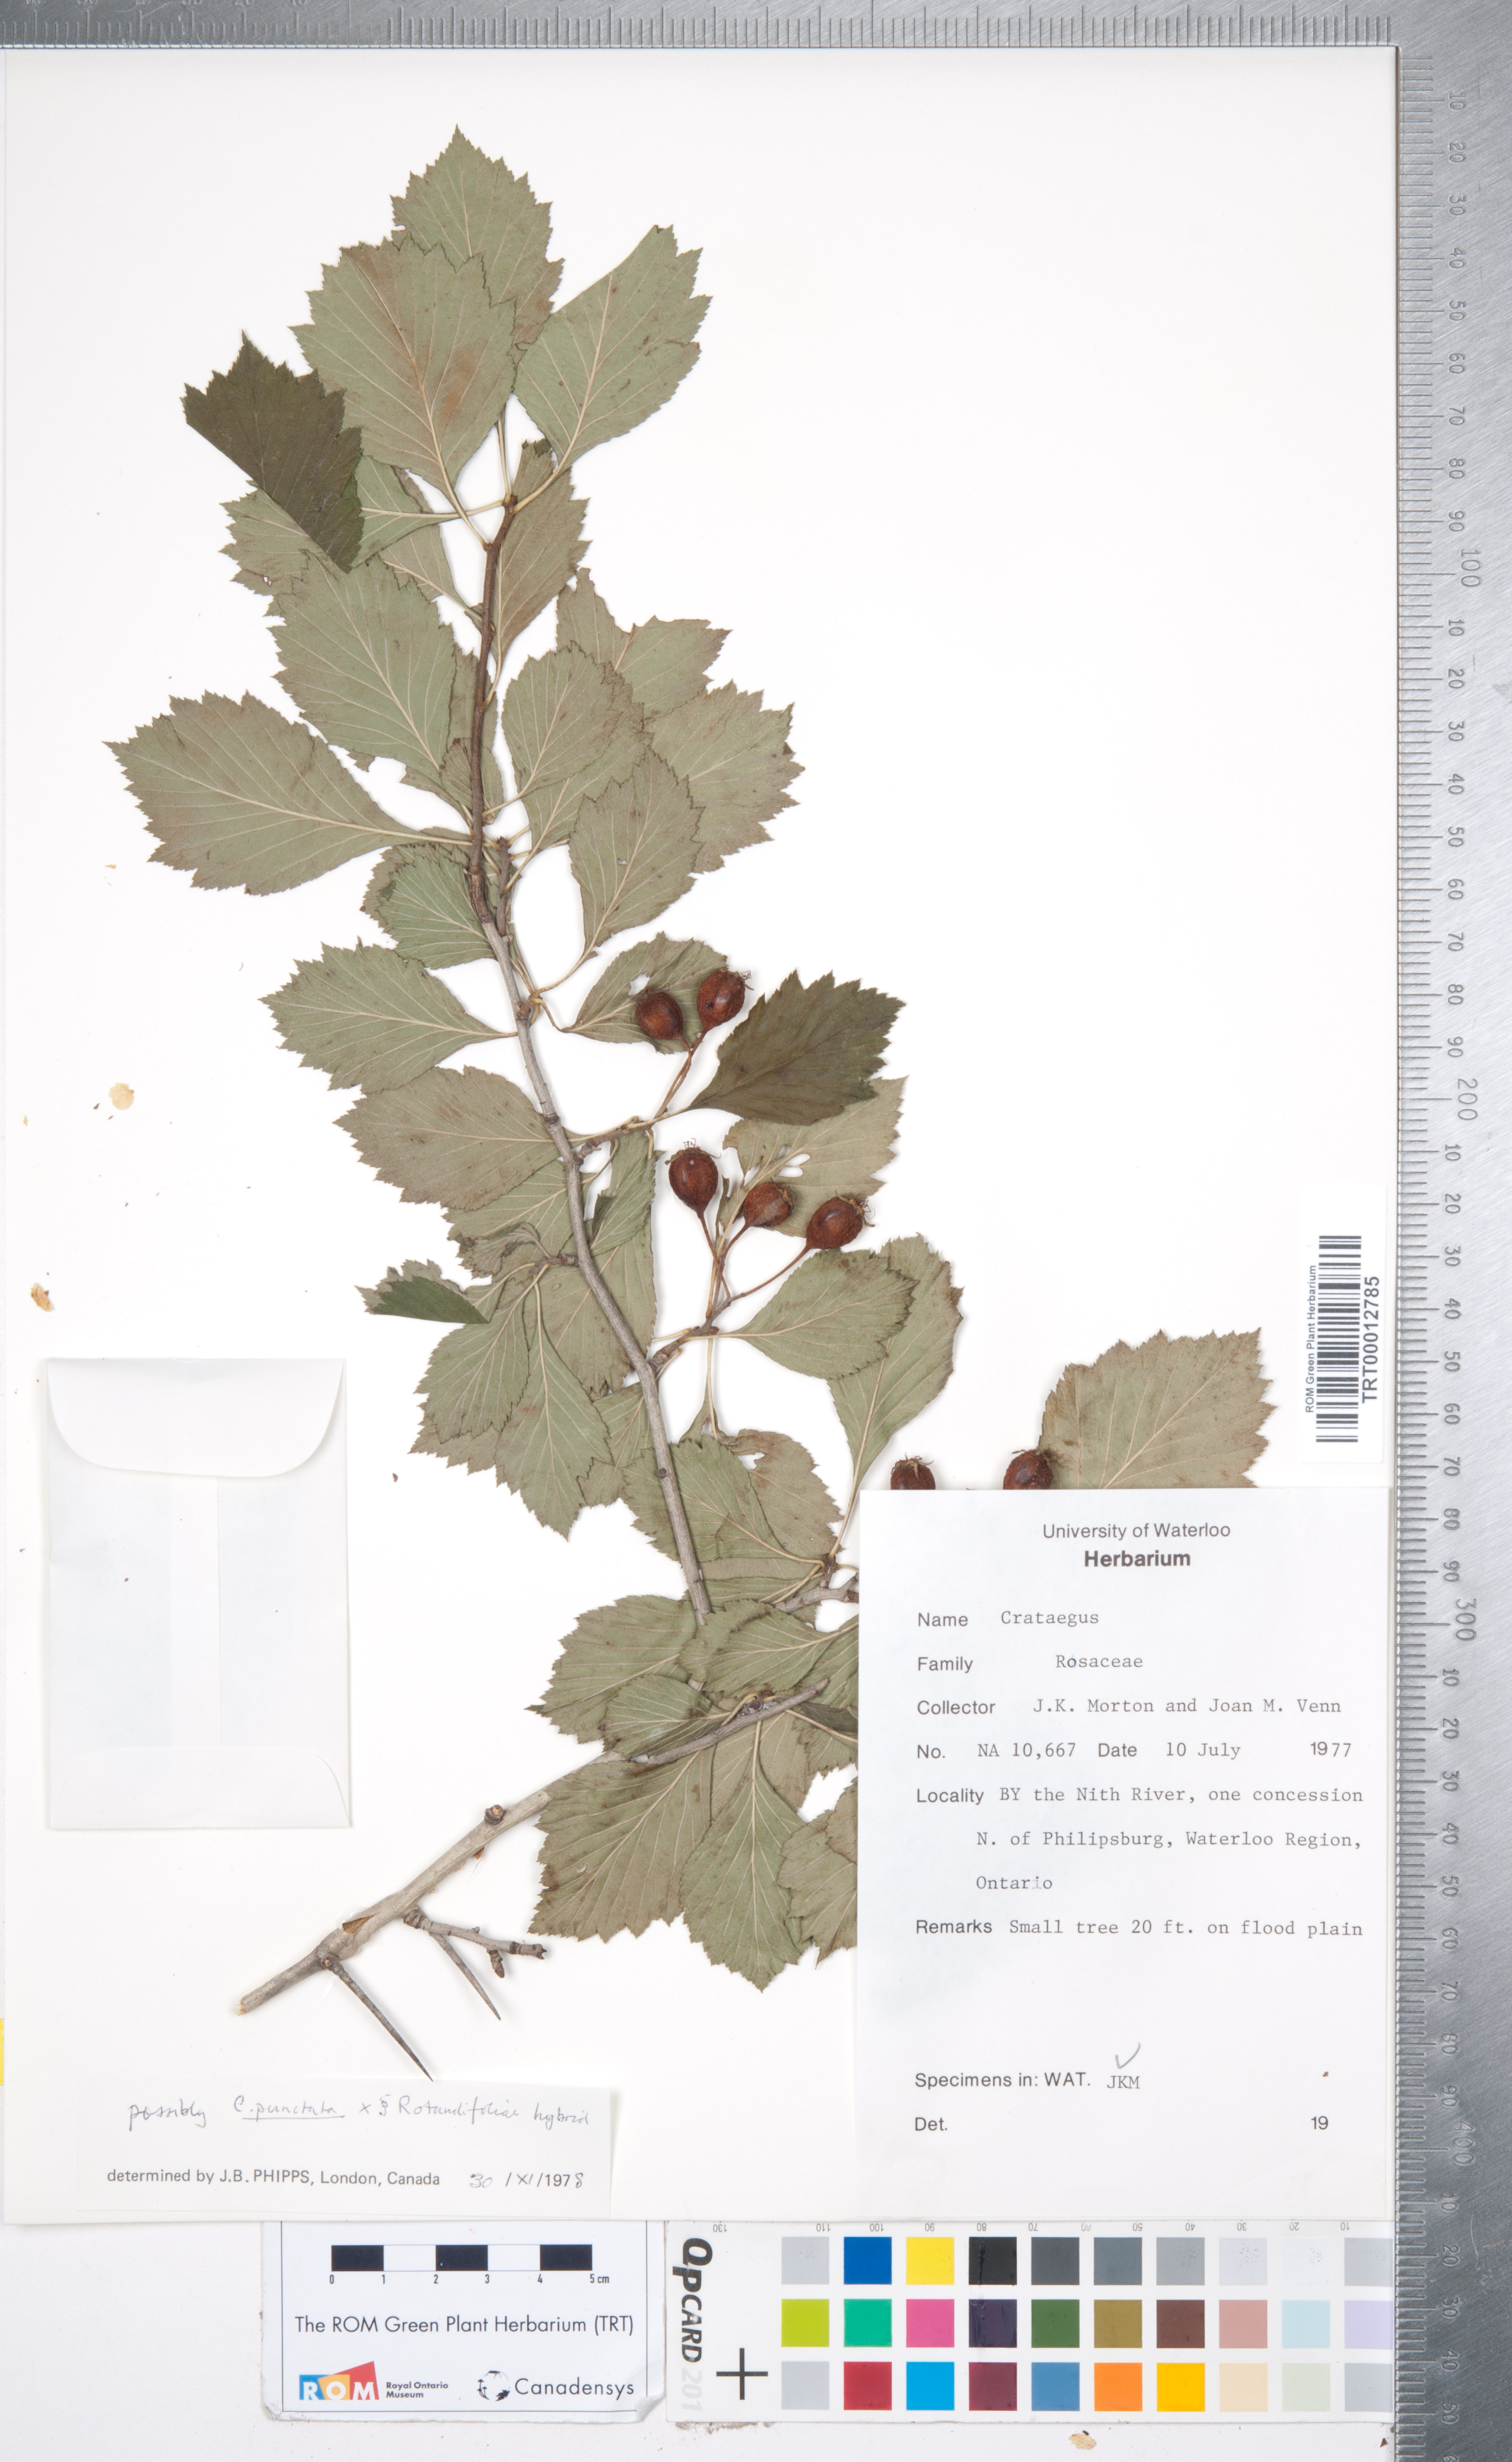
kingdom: Plantae
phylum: Tracheophyta
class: Magnoliopsida
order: Rosales
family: Rosaceae
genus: Crataegus
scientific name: Crataegus
